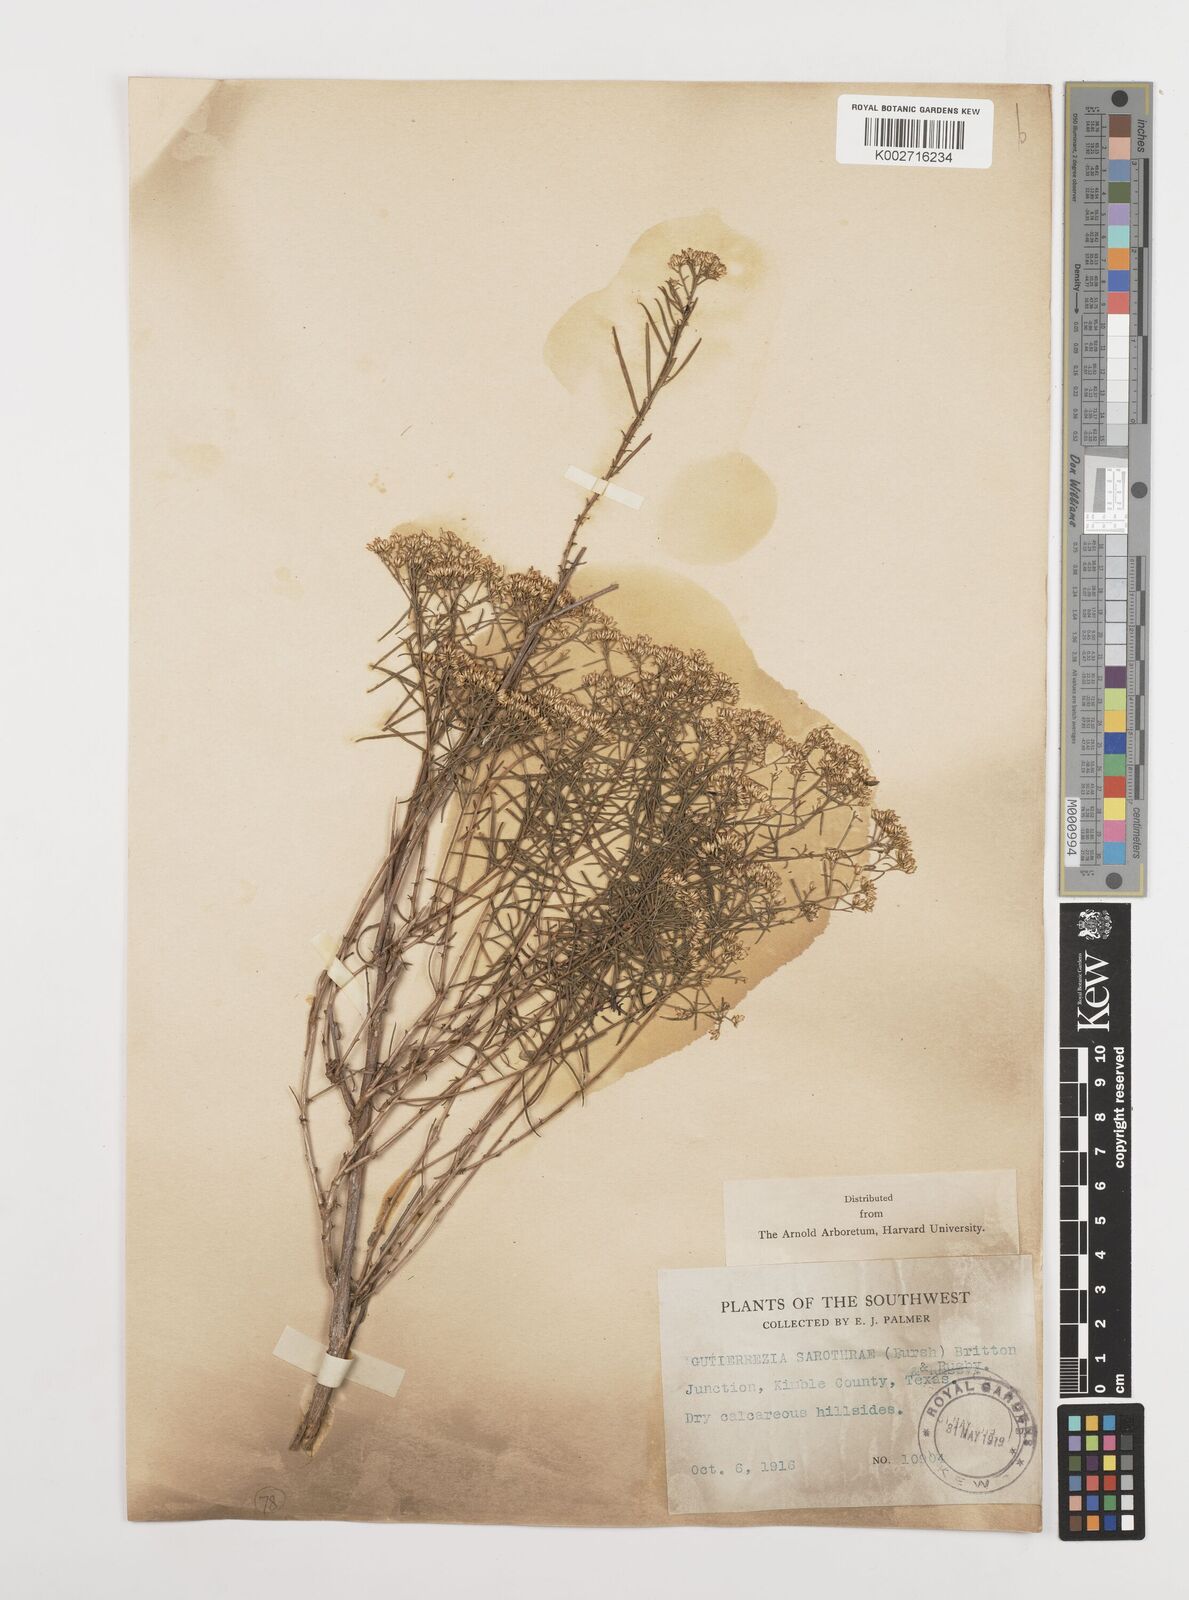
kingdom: Plantae
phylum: Tracheophyta
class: Magnoliopsida
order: Asterales
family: Asteraceae
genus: Gutierrezia
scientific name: Gutierrezia sarothrae
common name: Broom snakeweed
